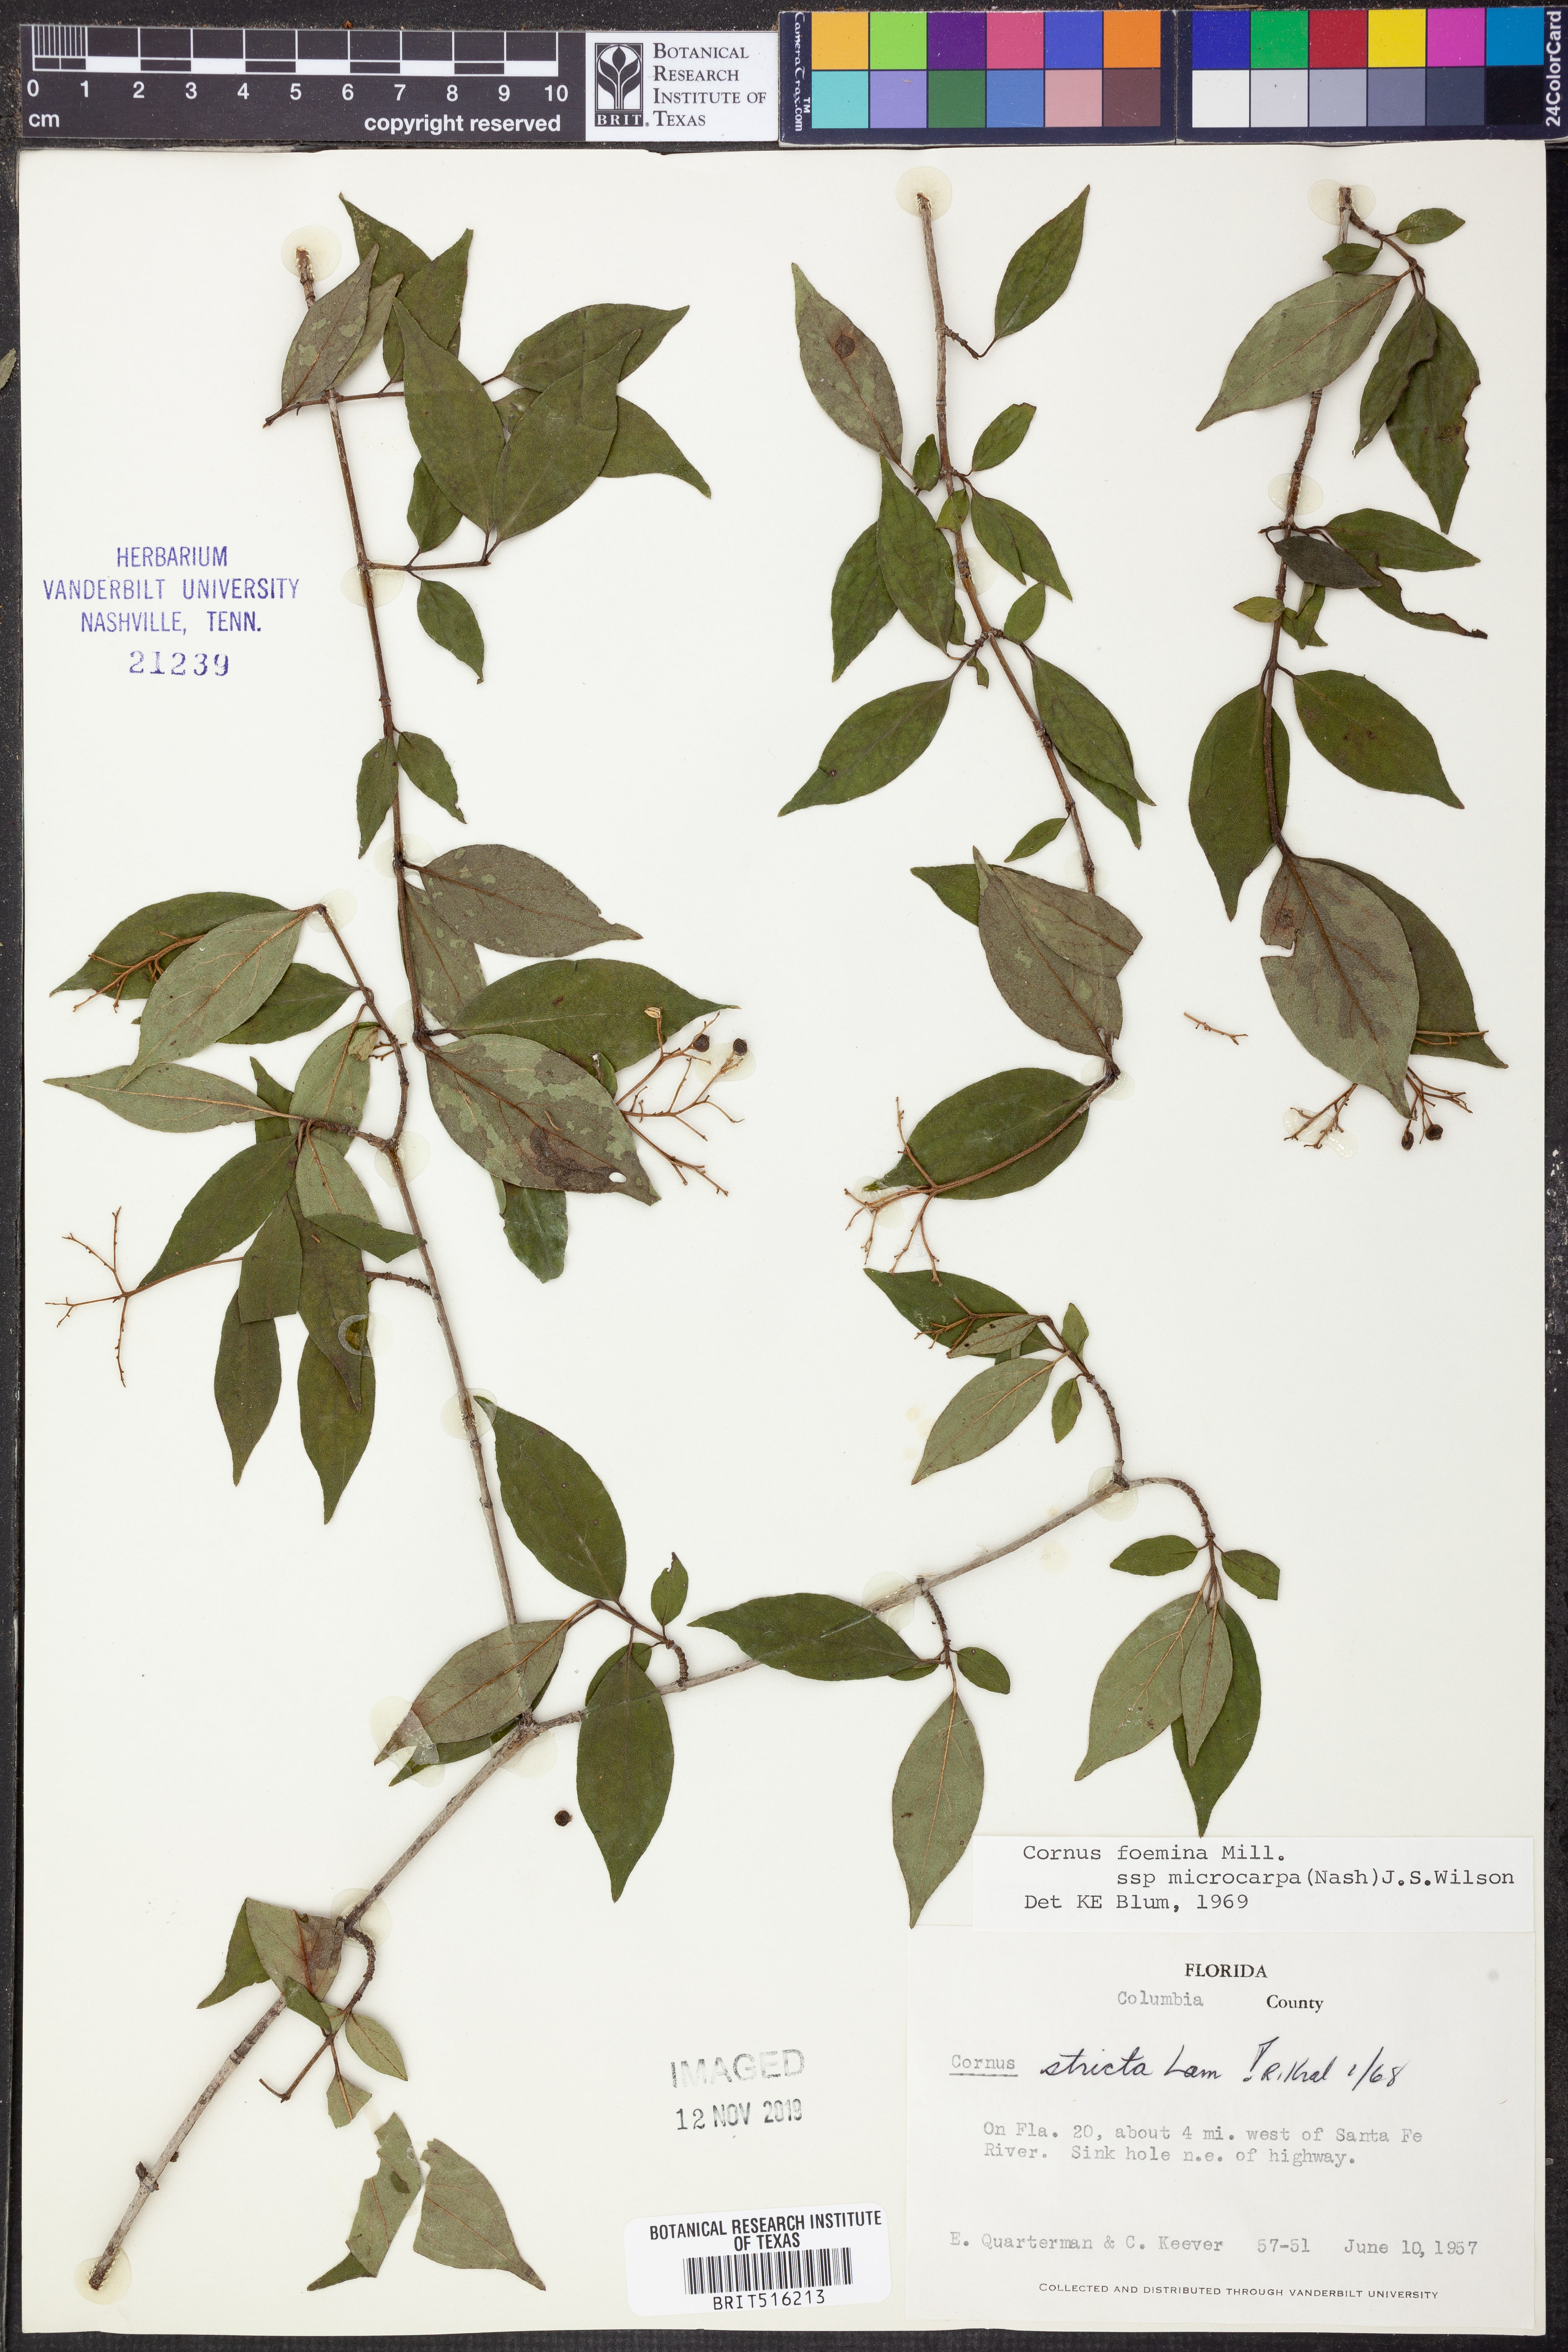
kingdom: Plantae
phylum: Tracheophyta
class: Magnoliopsida
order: Cornales
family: Cornaceae
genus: Cornus
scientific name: Cornus asperifolia
